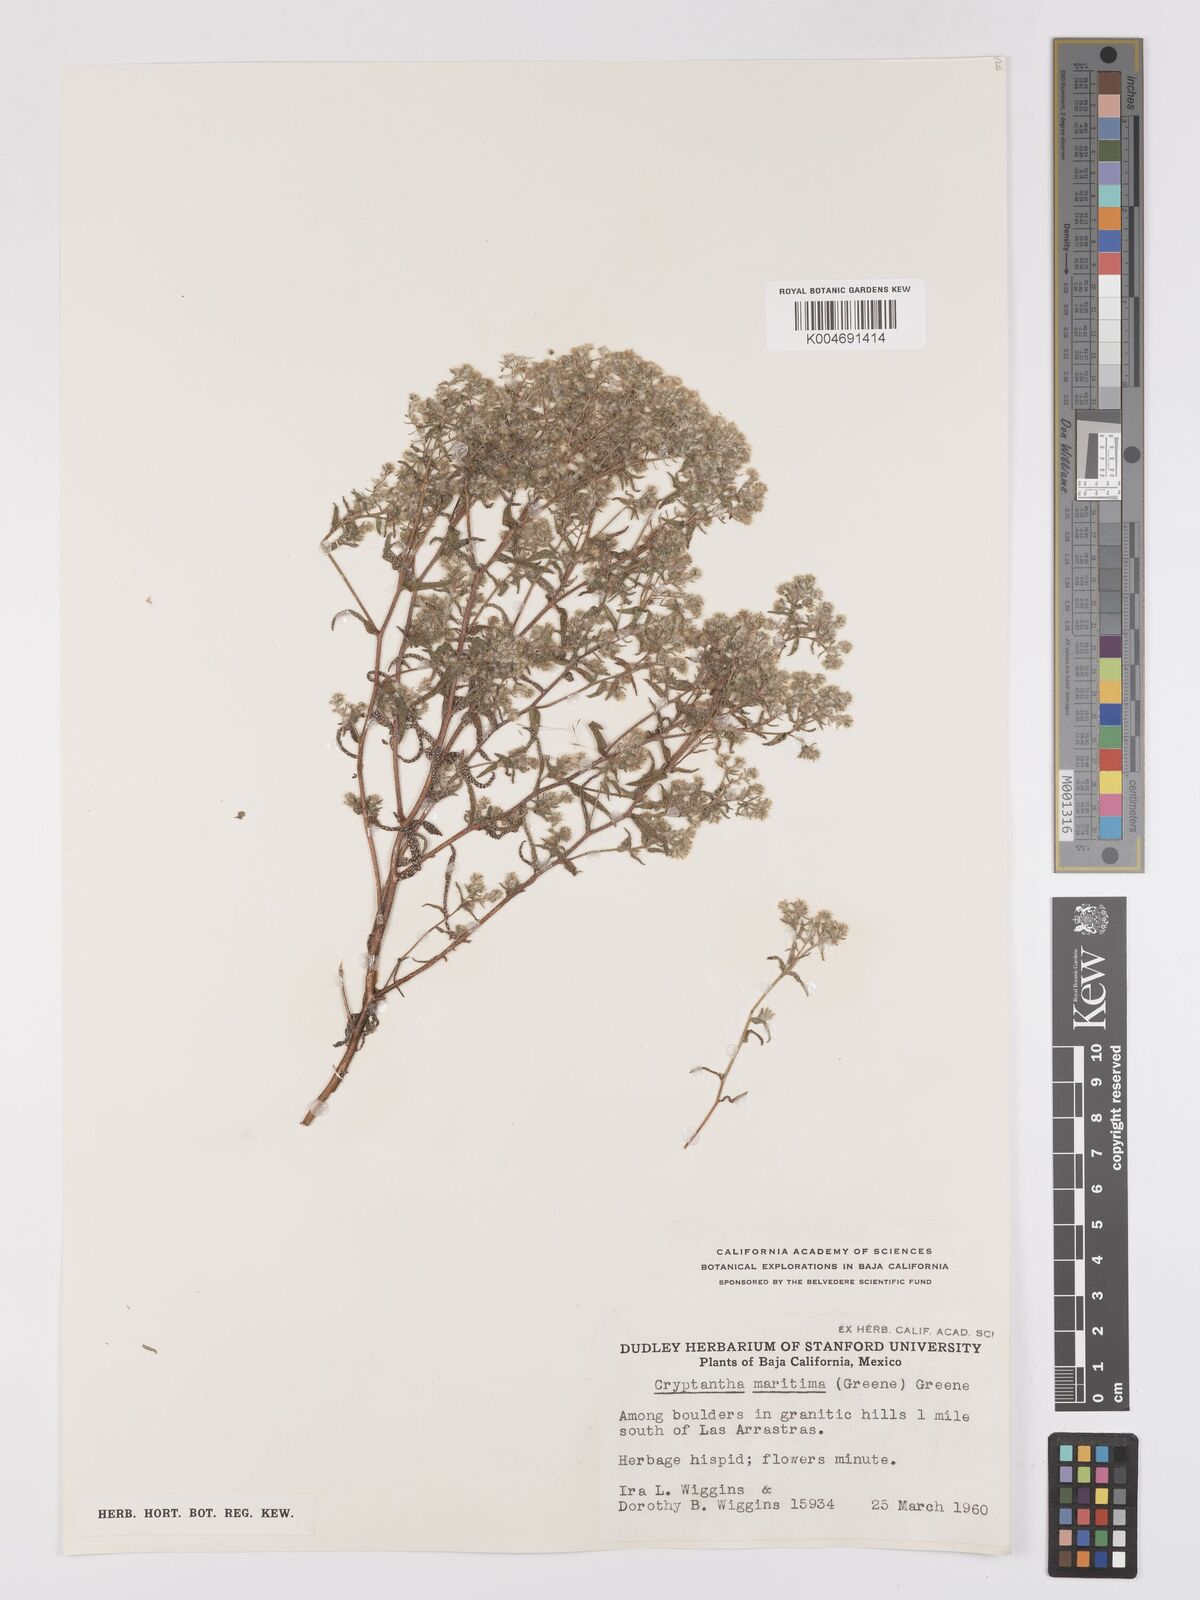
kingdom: Plantae
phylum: Tracheophyta
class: Magnoliopsida
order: Boraginales
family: Boraginaceae
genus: Cryptantha
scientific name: Cryptantha maritima
